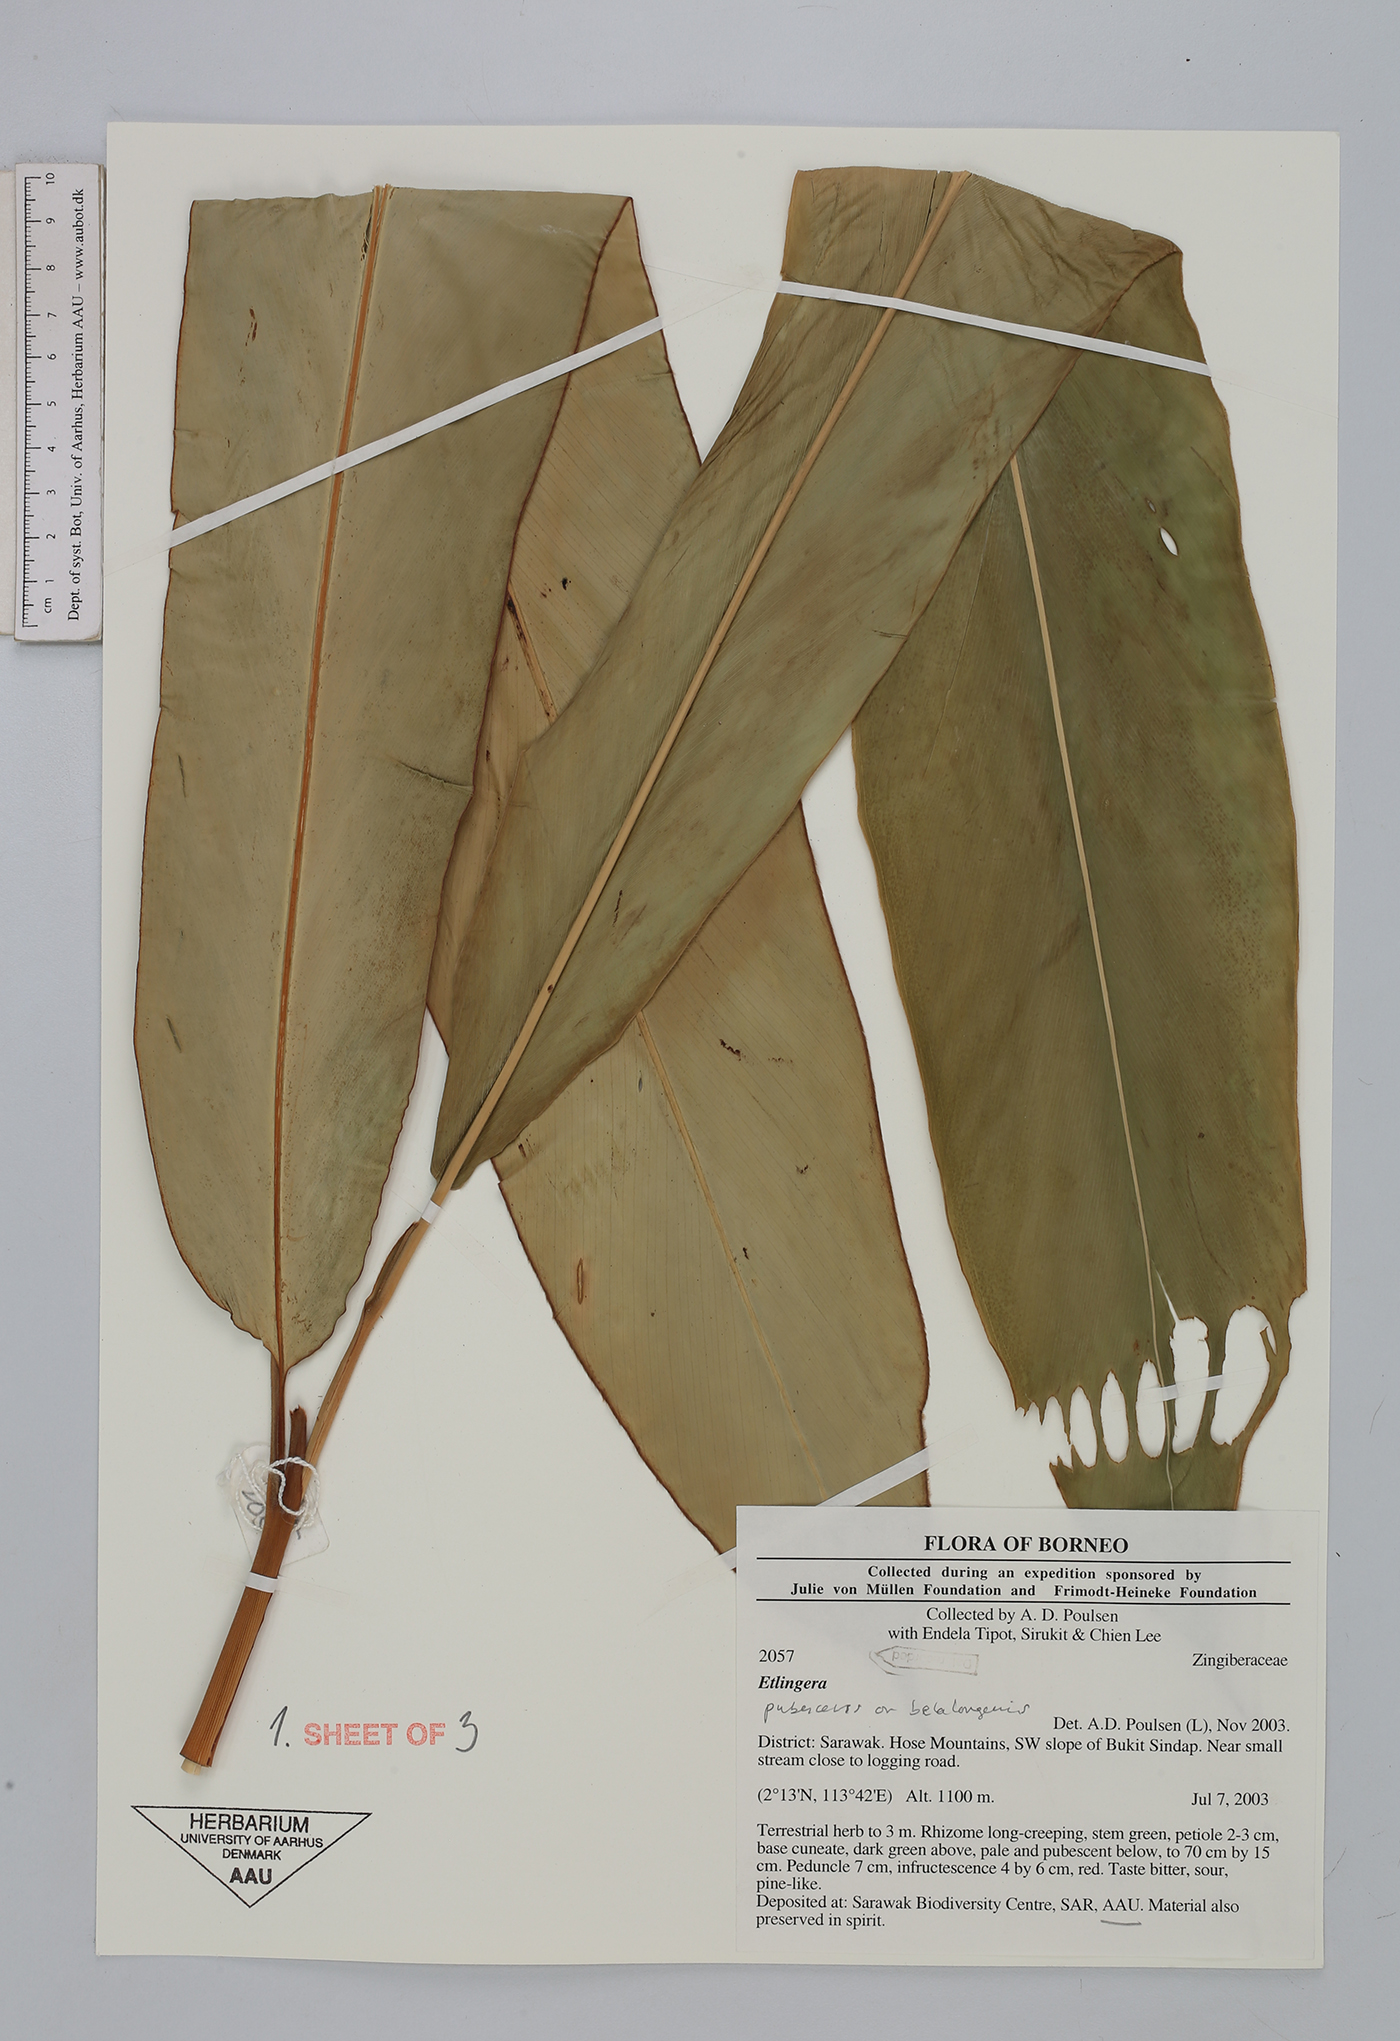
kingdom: Plantae
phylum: Tracheophyta
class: Liliopsida
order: Zingiberales
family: Zingiberaceae
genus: Etlingera
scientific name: Etlingera pubescens
